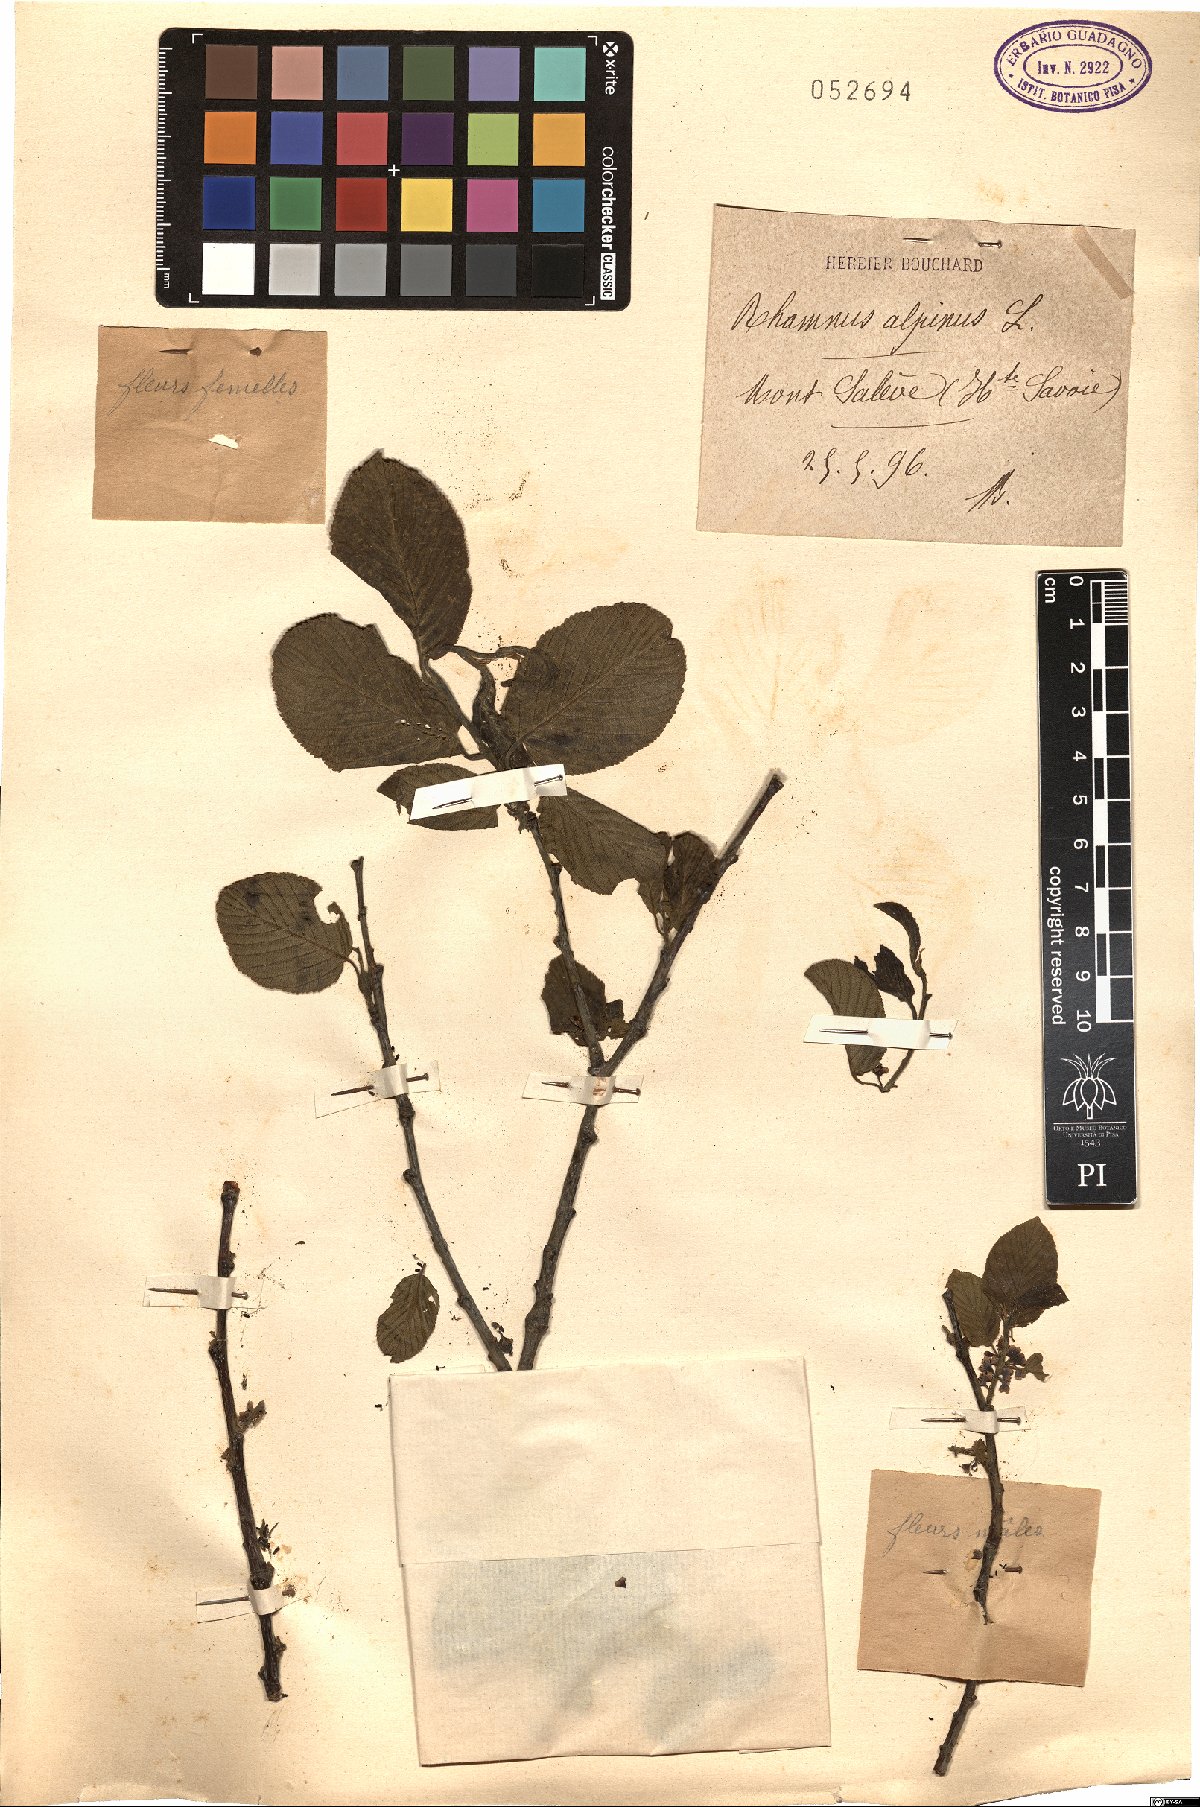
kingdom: Plantae
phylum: Tracheophyta
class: Magnoliopsida
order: Rosales
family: Rhamnaceae
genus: Atadinus
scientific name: Atadinus alpinus
